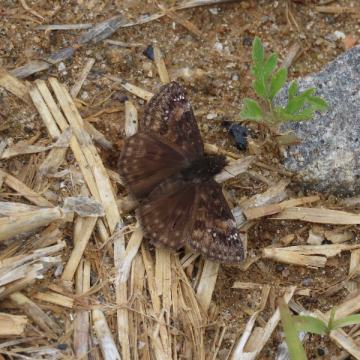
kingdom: Animalia
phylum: Arthropoda
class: Insecta
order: Lepidoptera
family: Hesperiidae
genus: Gesta
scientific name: Gesta
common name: Wild Indigo Duskywing
